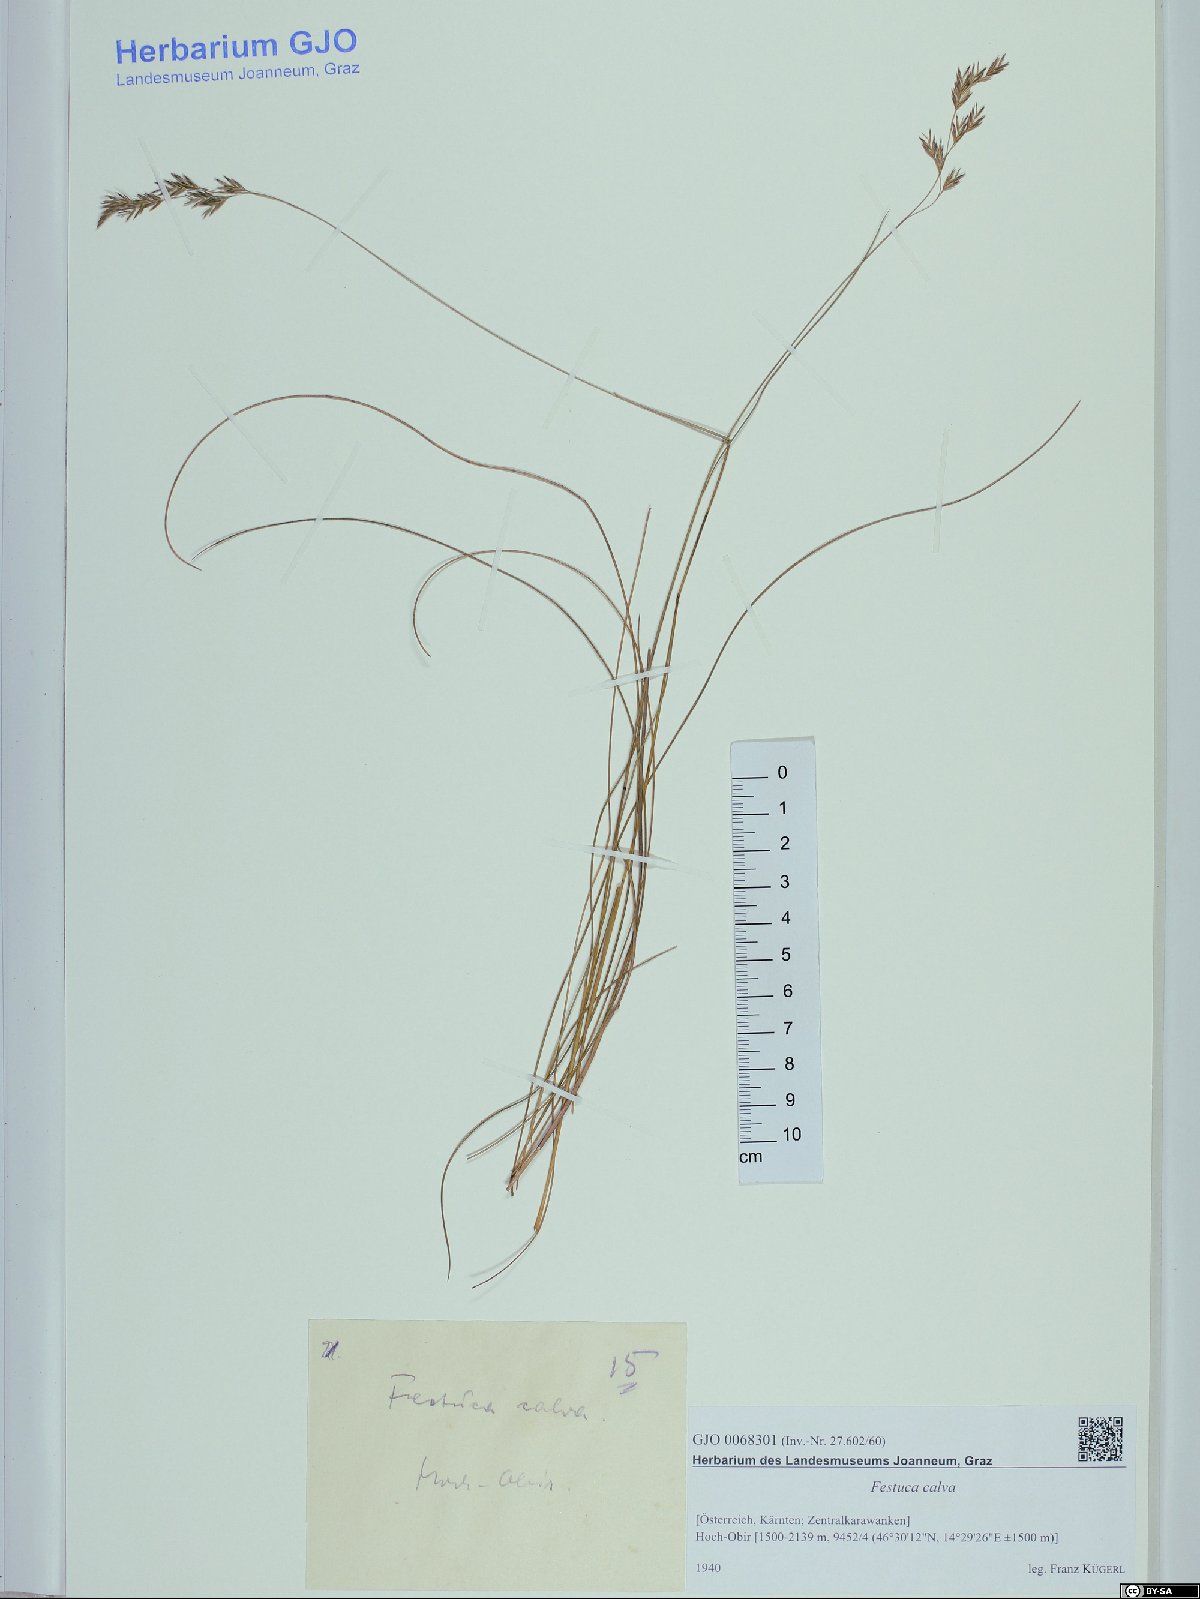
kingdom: Plantae
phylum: Tracheophyta
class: Liliopsida
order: Poales
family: Poaceae
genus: Festuca
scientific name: Festuca calva
